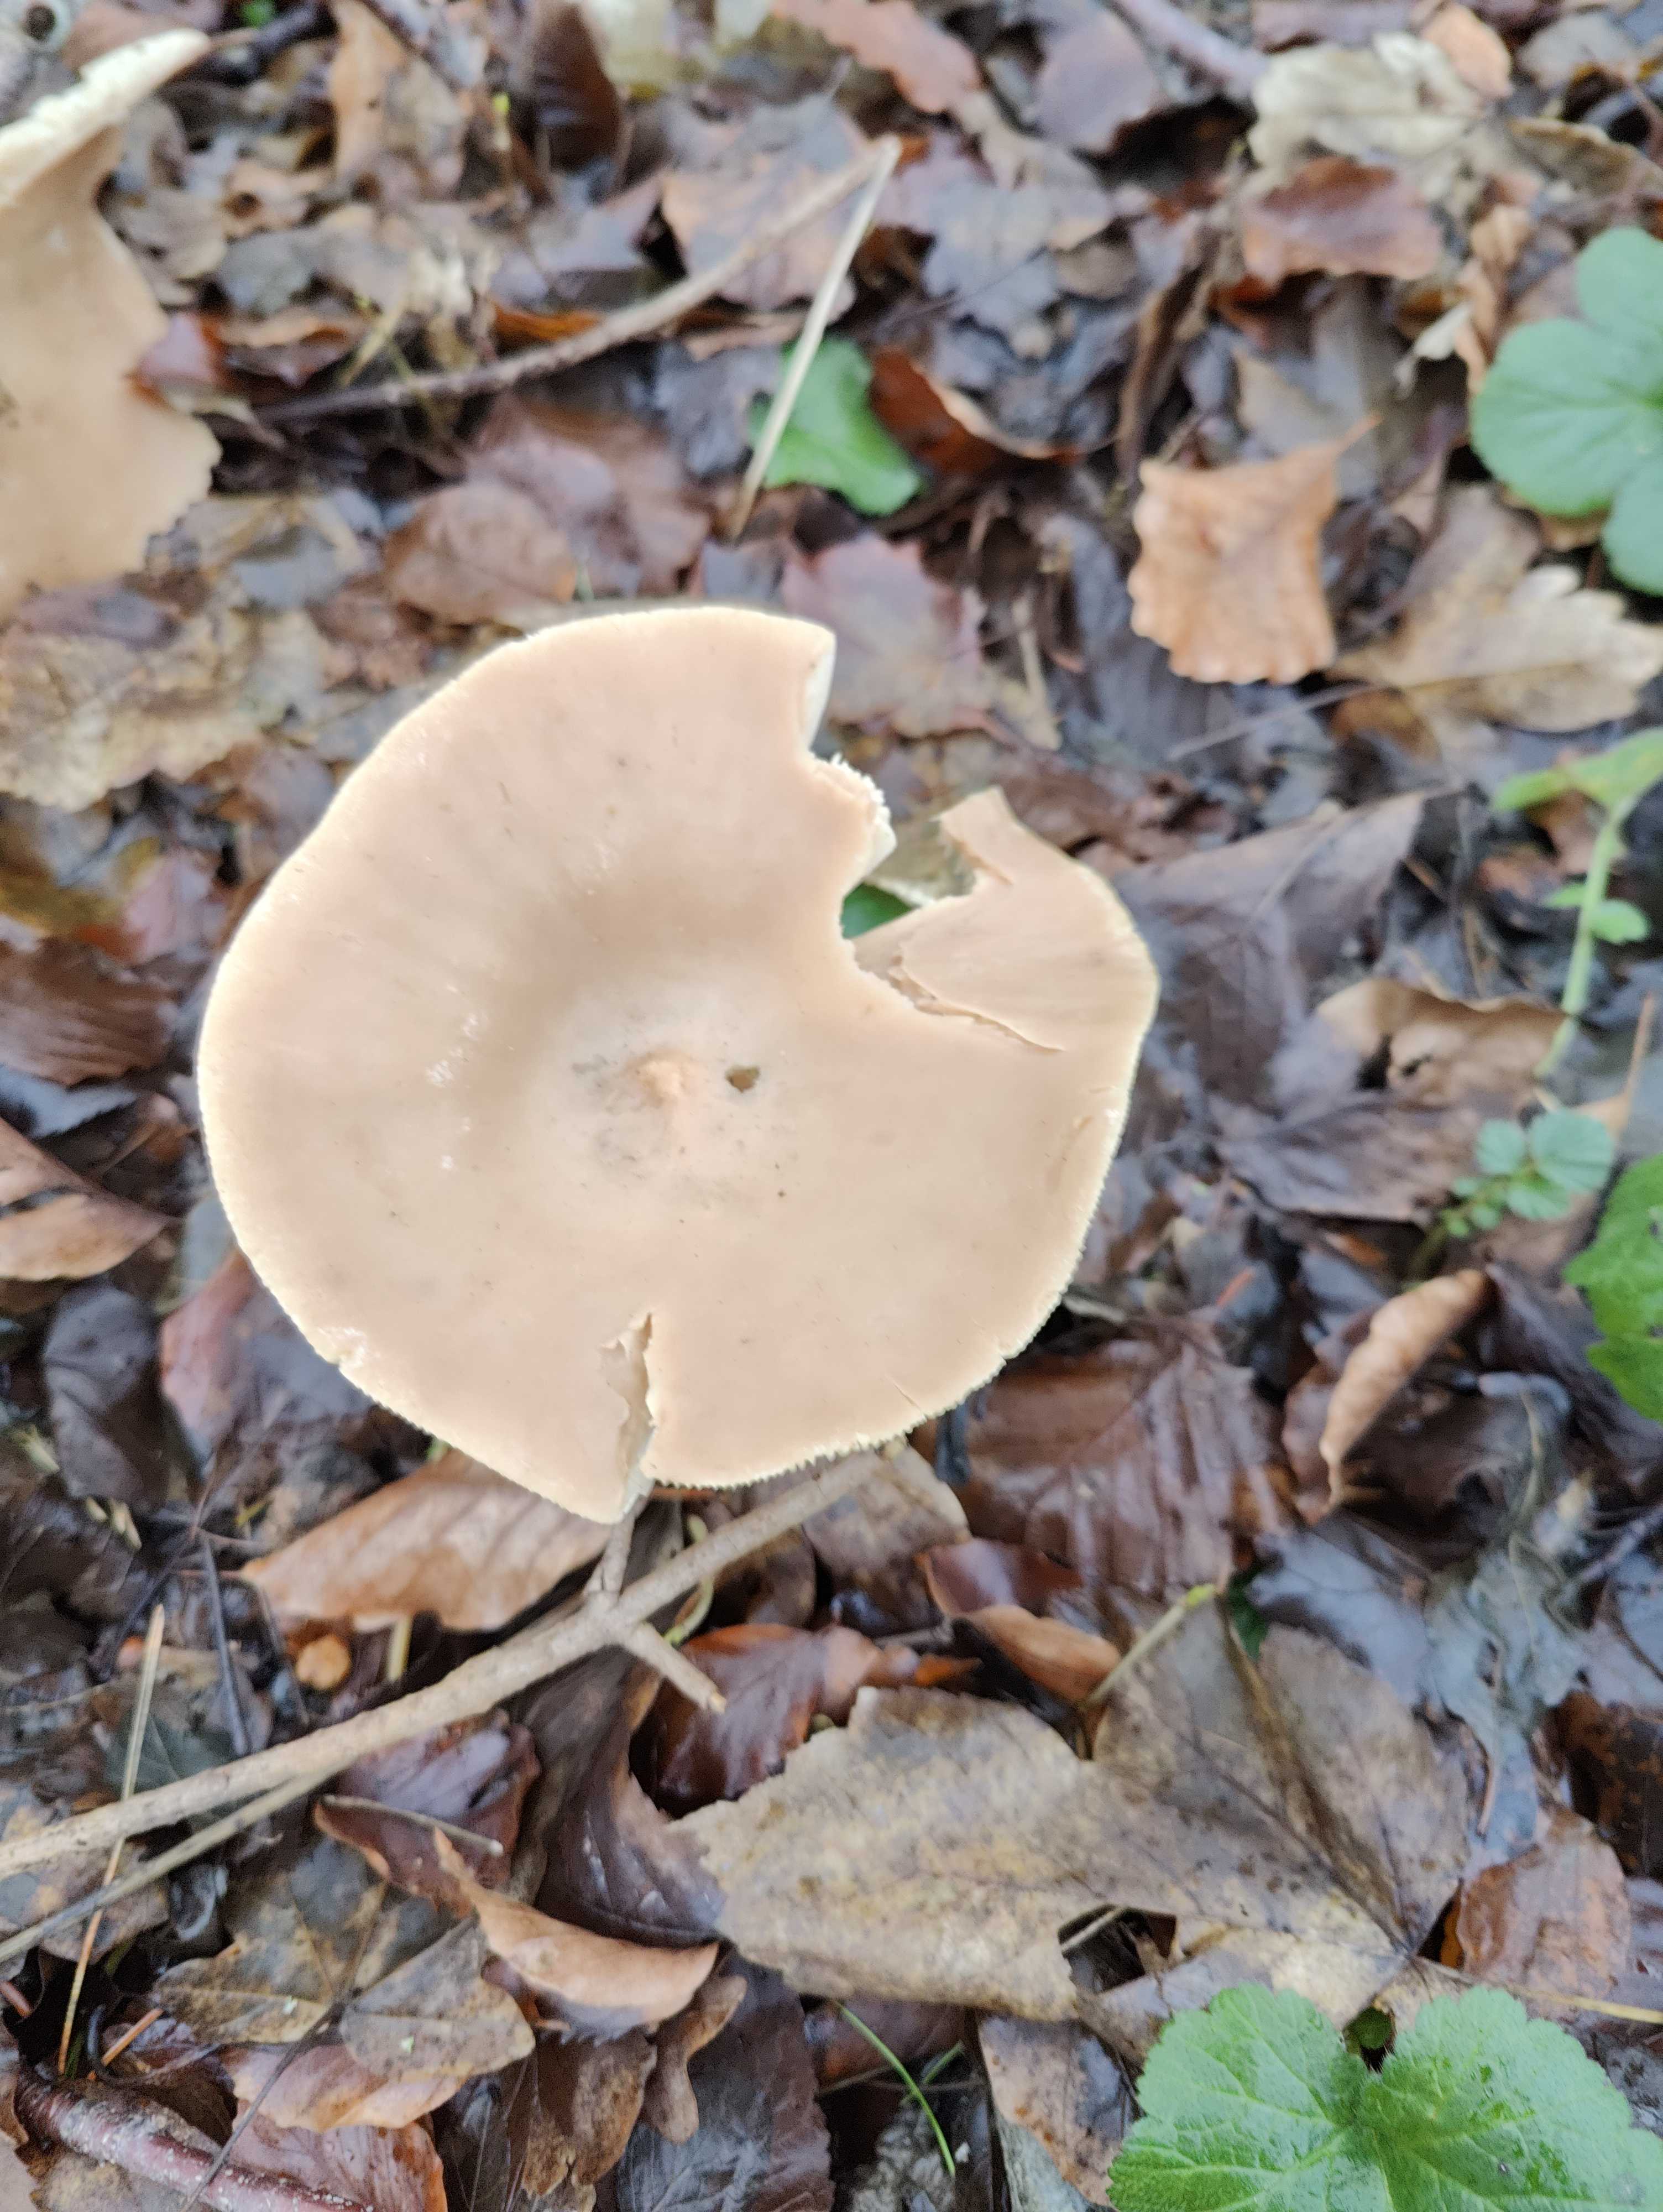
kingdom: Fungi
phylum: Basidiomycota
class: Agaricomycetes
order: Agaricales
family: Tricholomataceae
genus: Infundibulicybe
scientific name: Infundibulicybe geotropa
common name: stor tragthat
